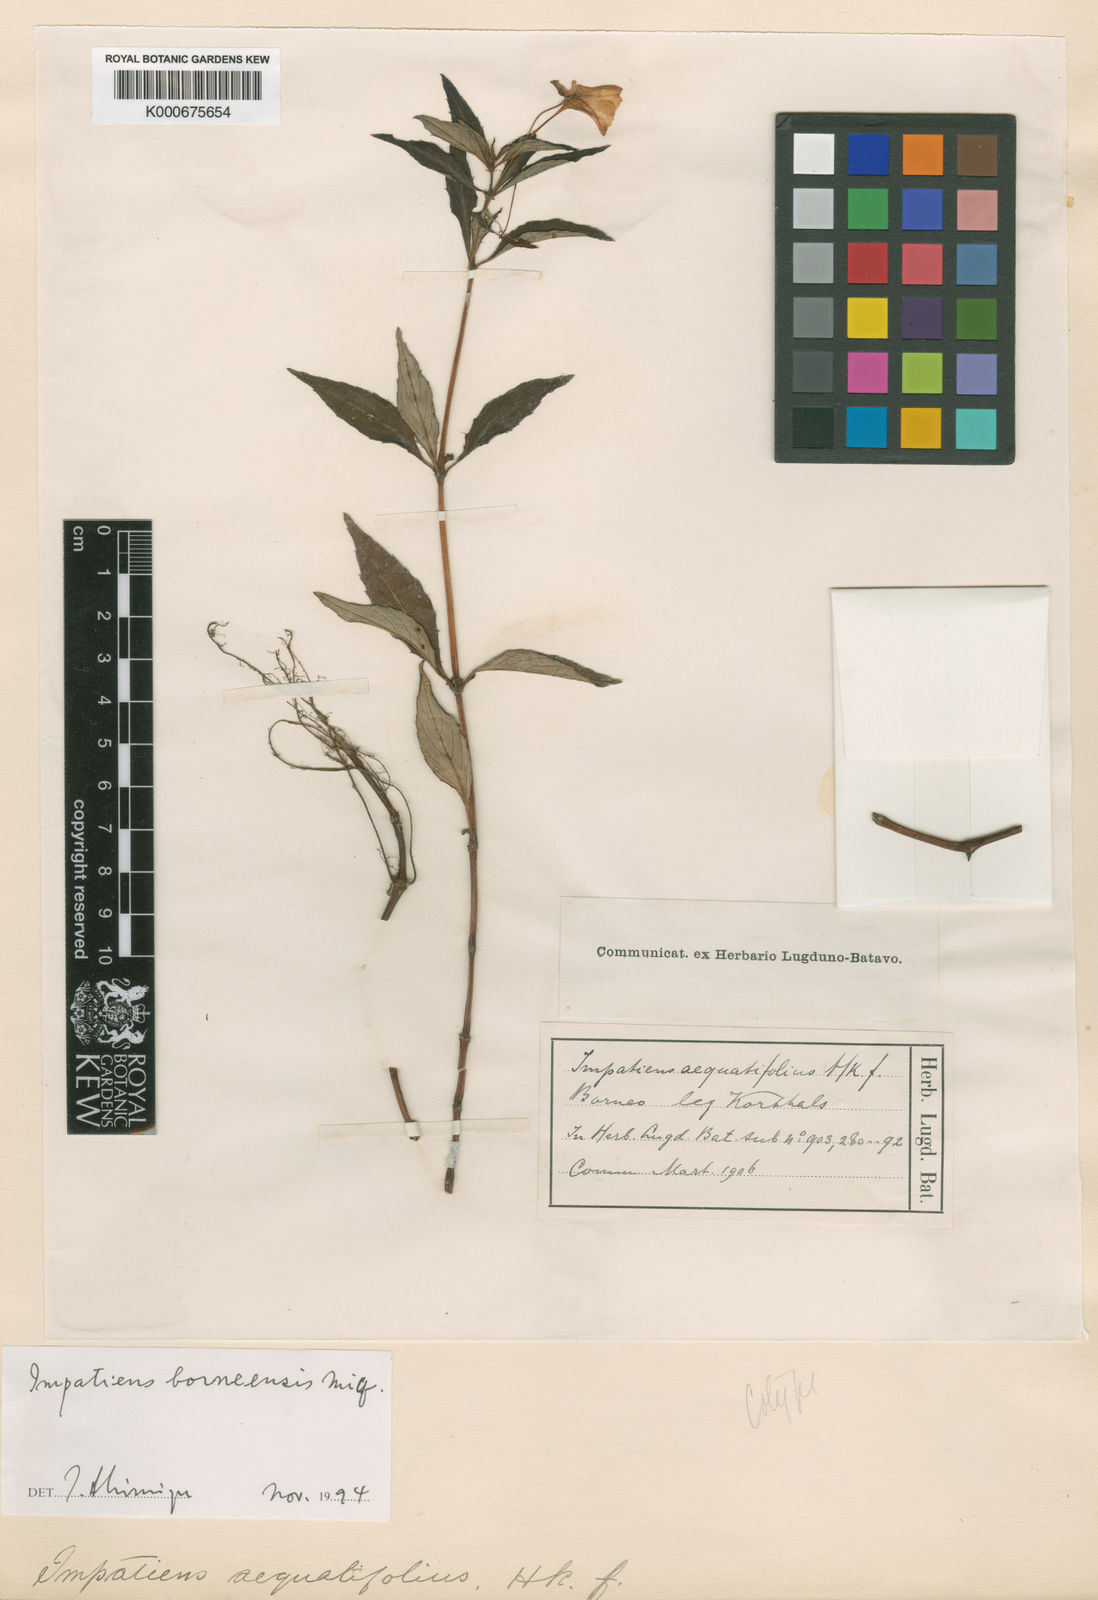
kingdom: Plantae
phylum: Tracheophyta
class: Magnoliopsida
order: Ericales
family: Balsaminaceae
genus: Impatiens
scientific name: Impatiens platypetala
